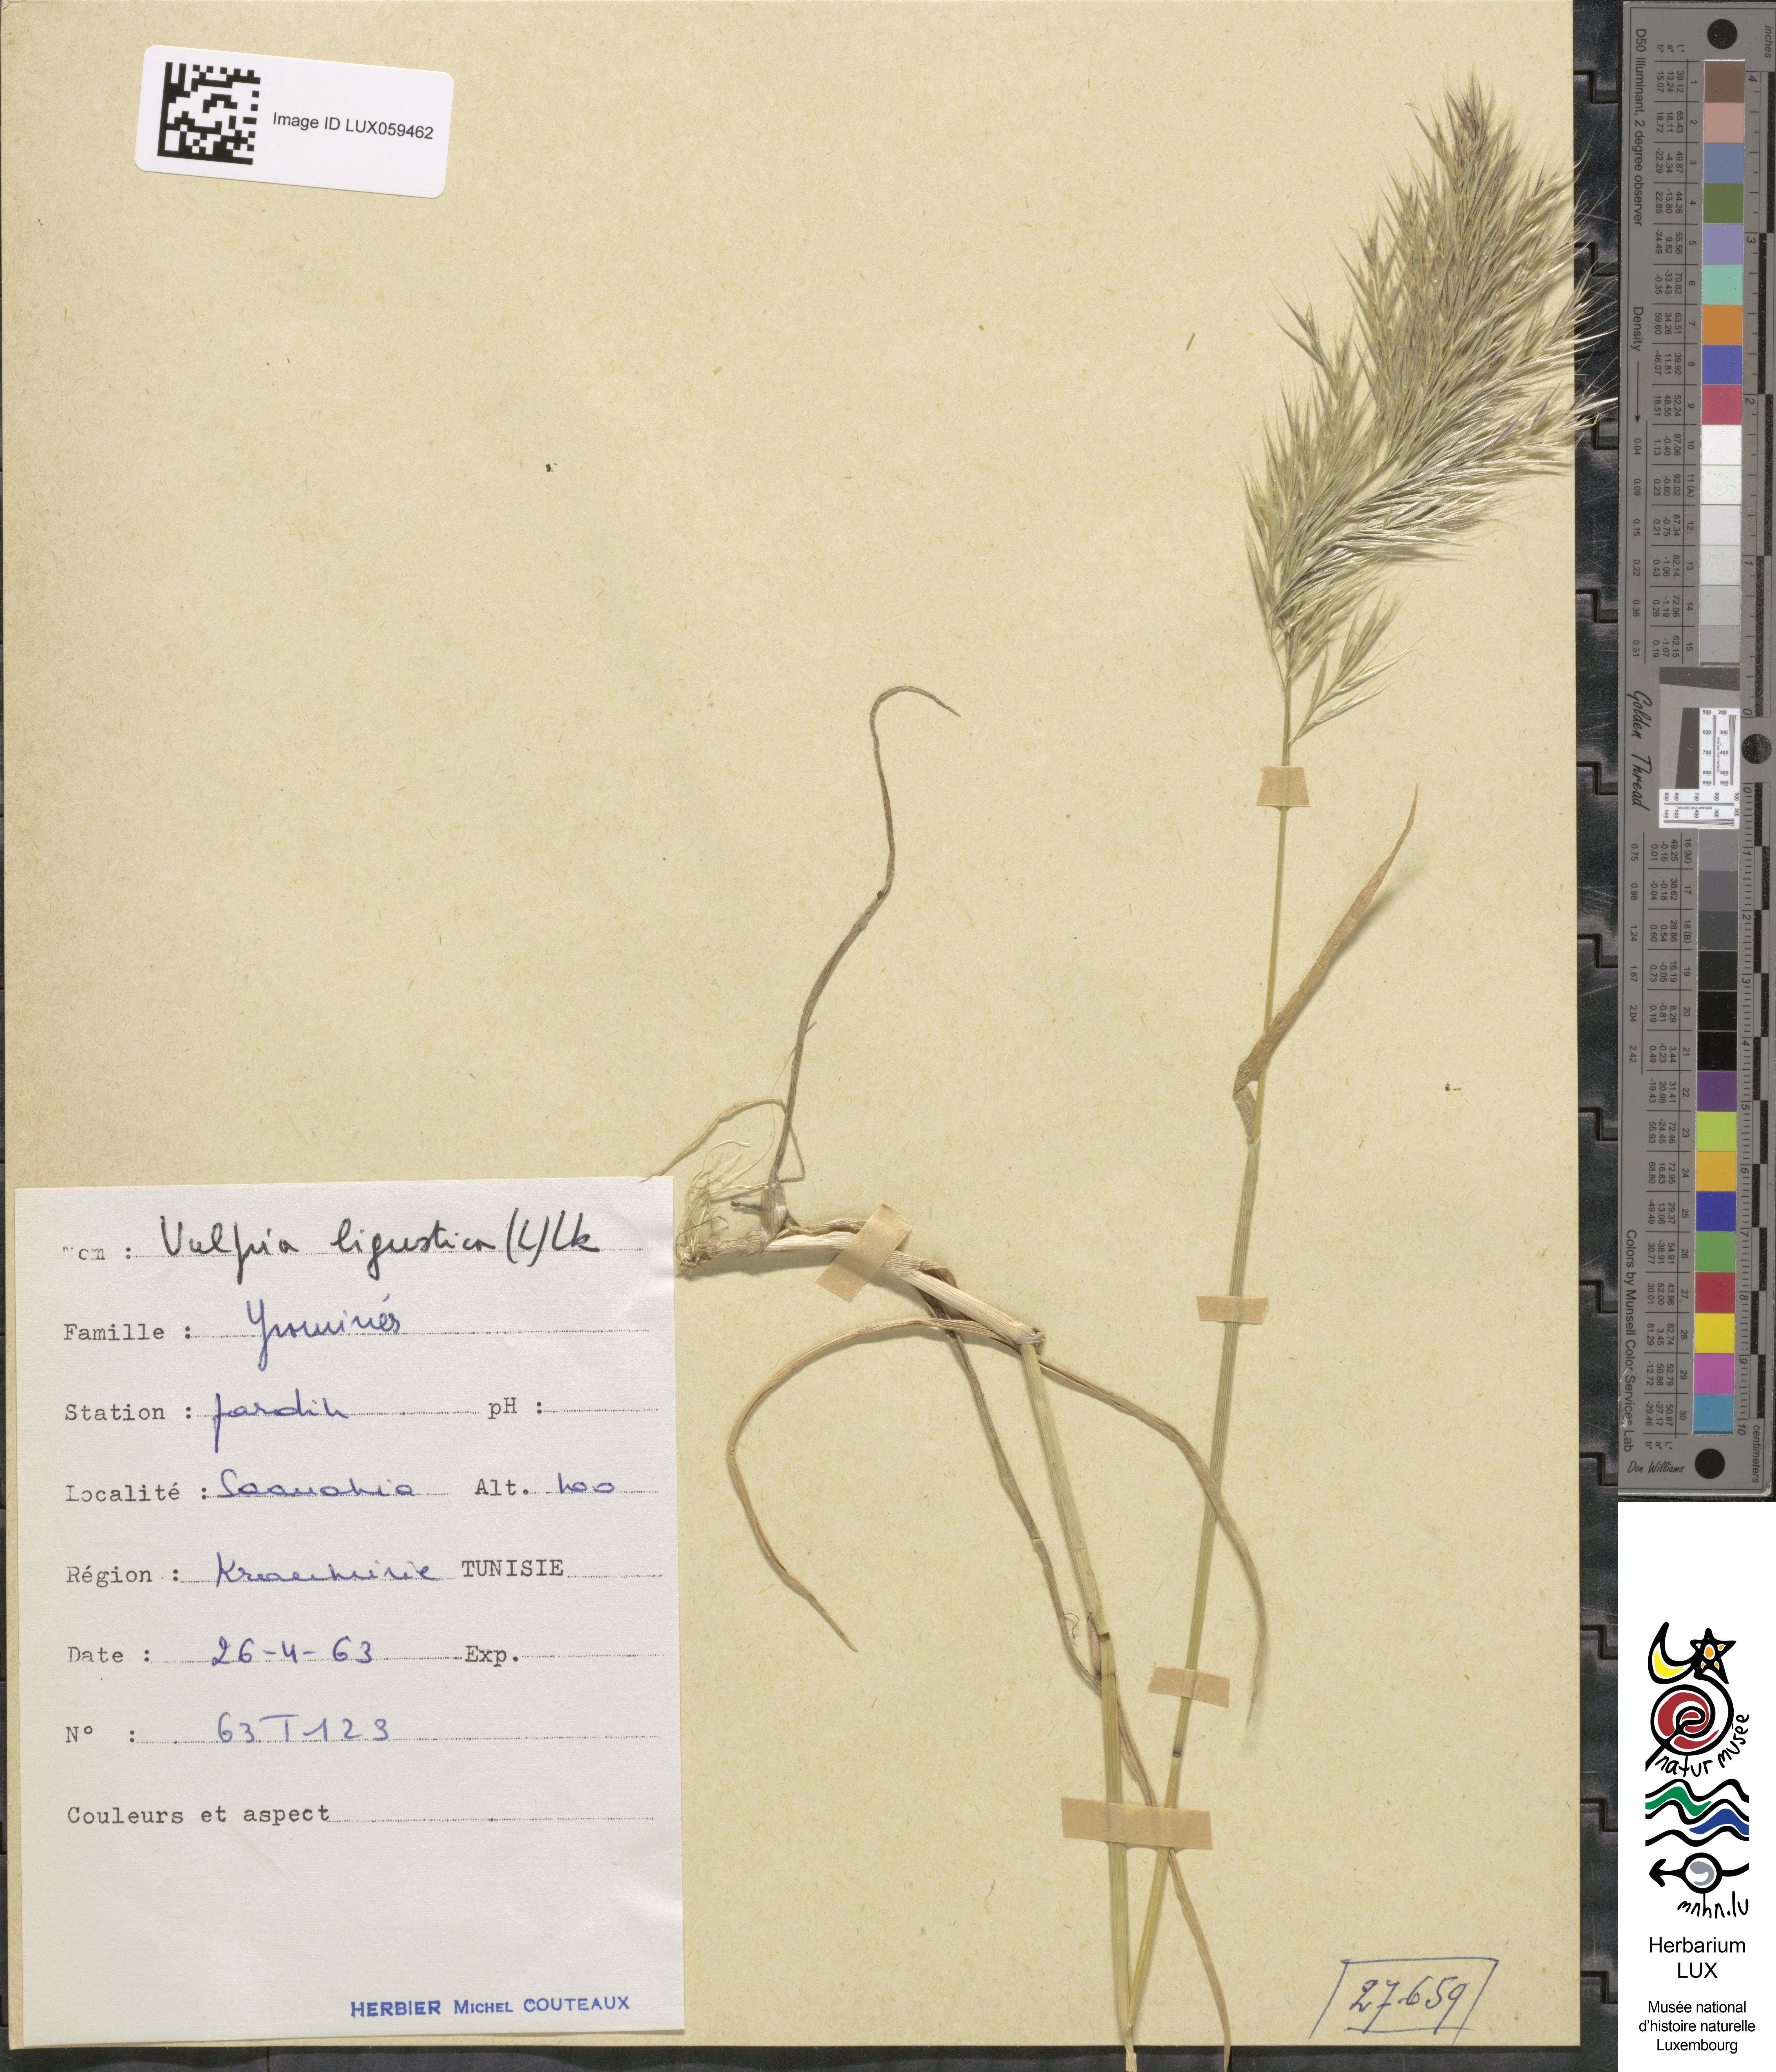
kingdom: Plantae
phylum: Tracheophyta
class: Liliopsida
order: Poales
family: Poaceae
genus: Festuca
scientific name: Festuca ligustica
